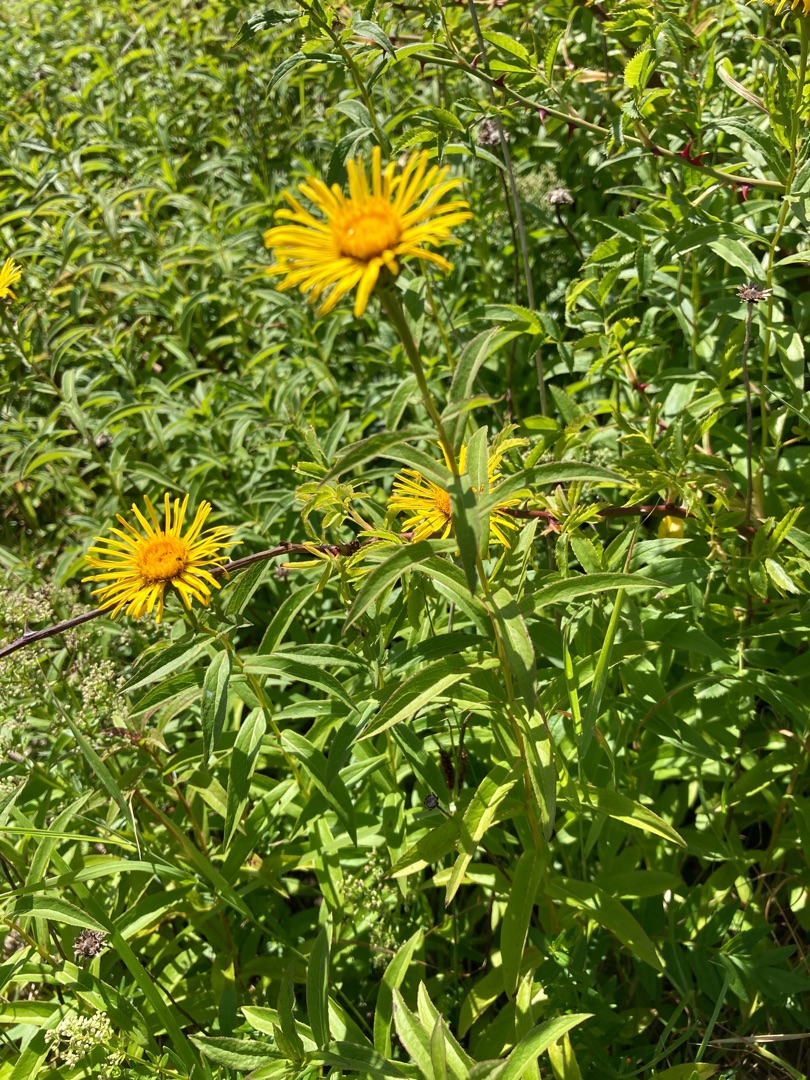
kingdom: Plantae
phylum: Tracheophyta
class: Magnoliopsida
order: Asterales
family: Asteraceae
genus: Pentanema
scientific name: Pentanema salicinum
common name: Pile-alant
